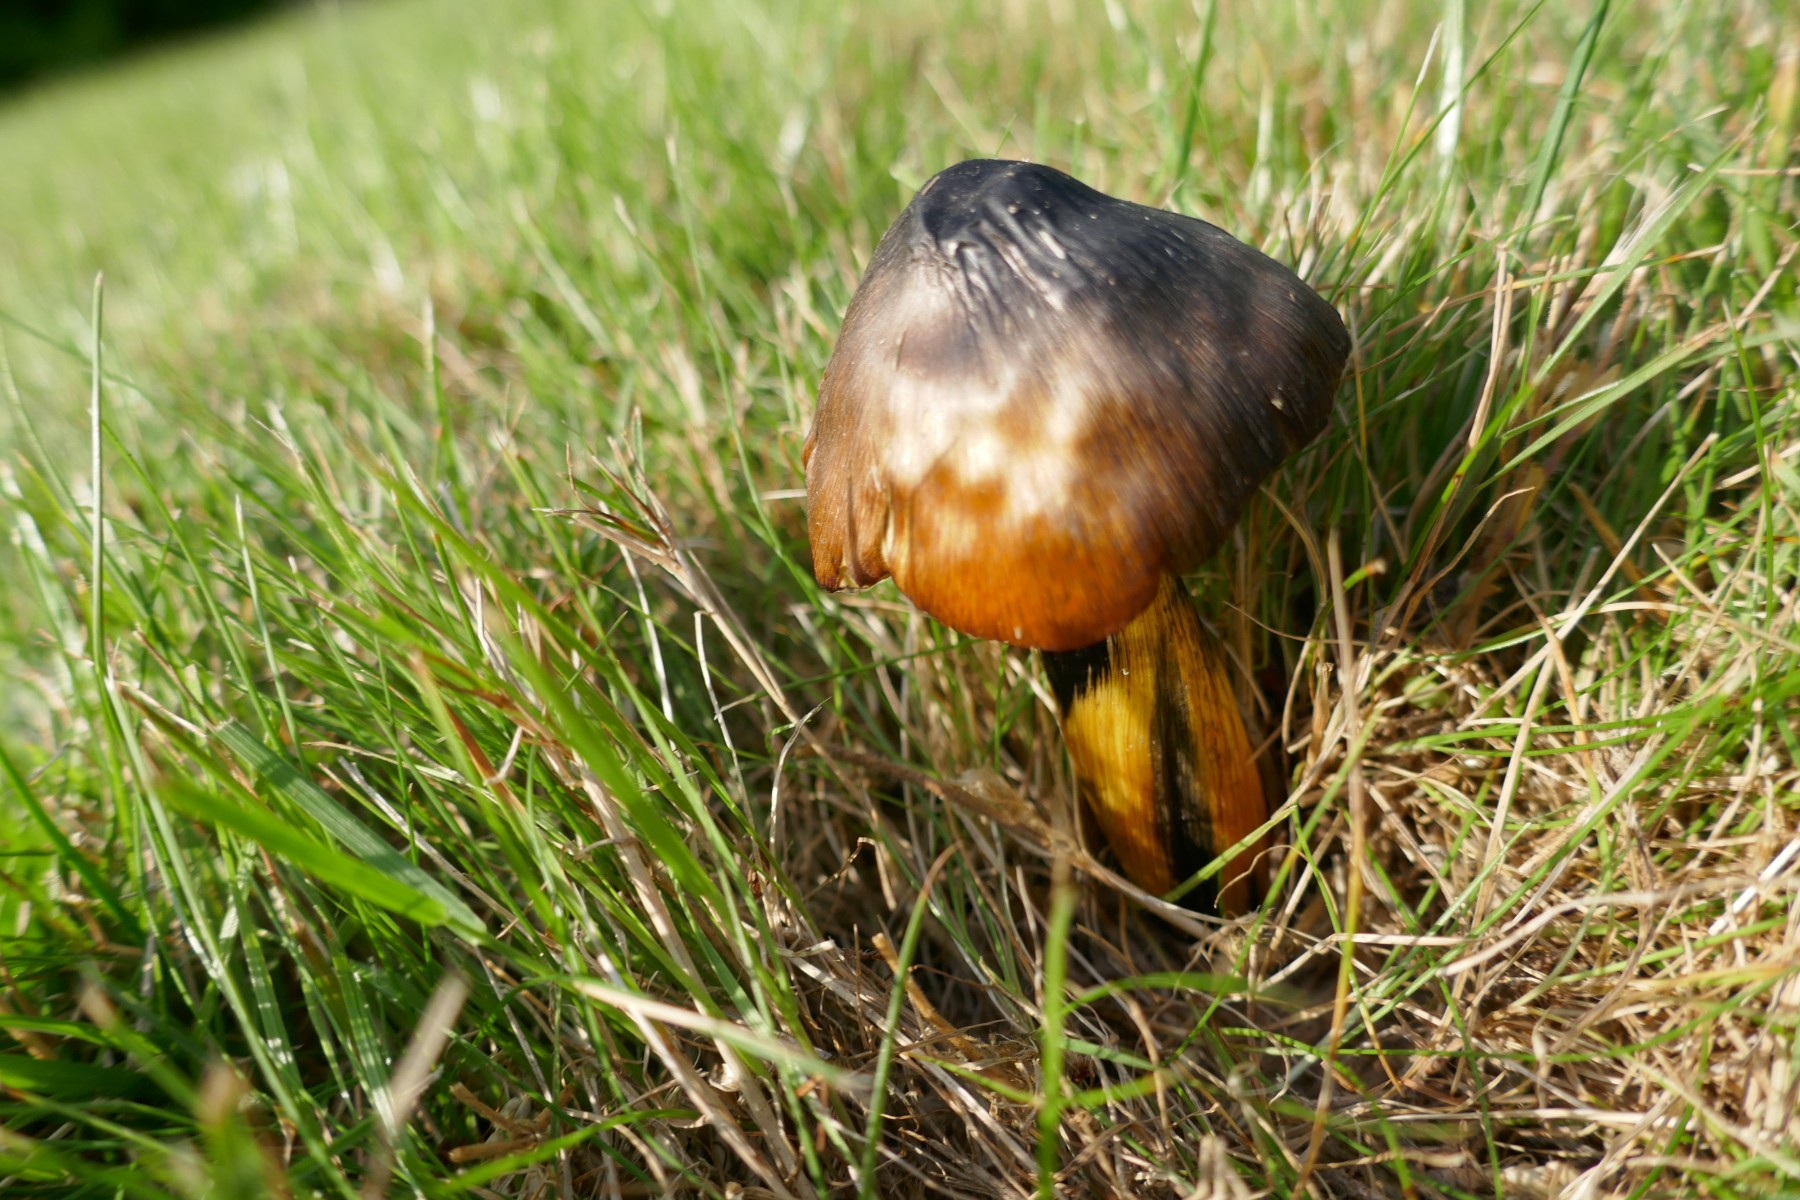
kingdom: Fungi
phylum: Basidiomycota
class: Agaricomycetes
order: Agaricales
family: Hygrophoraceae
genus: Hygrocybe
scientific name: Hygrocybe conica
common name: kegle-vokshat
